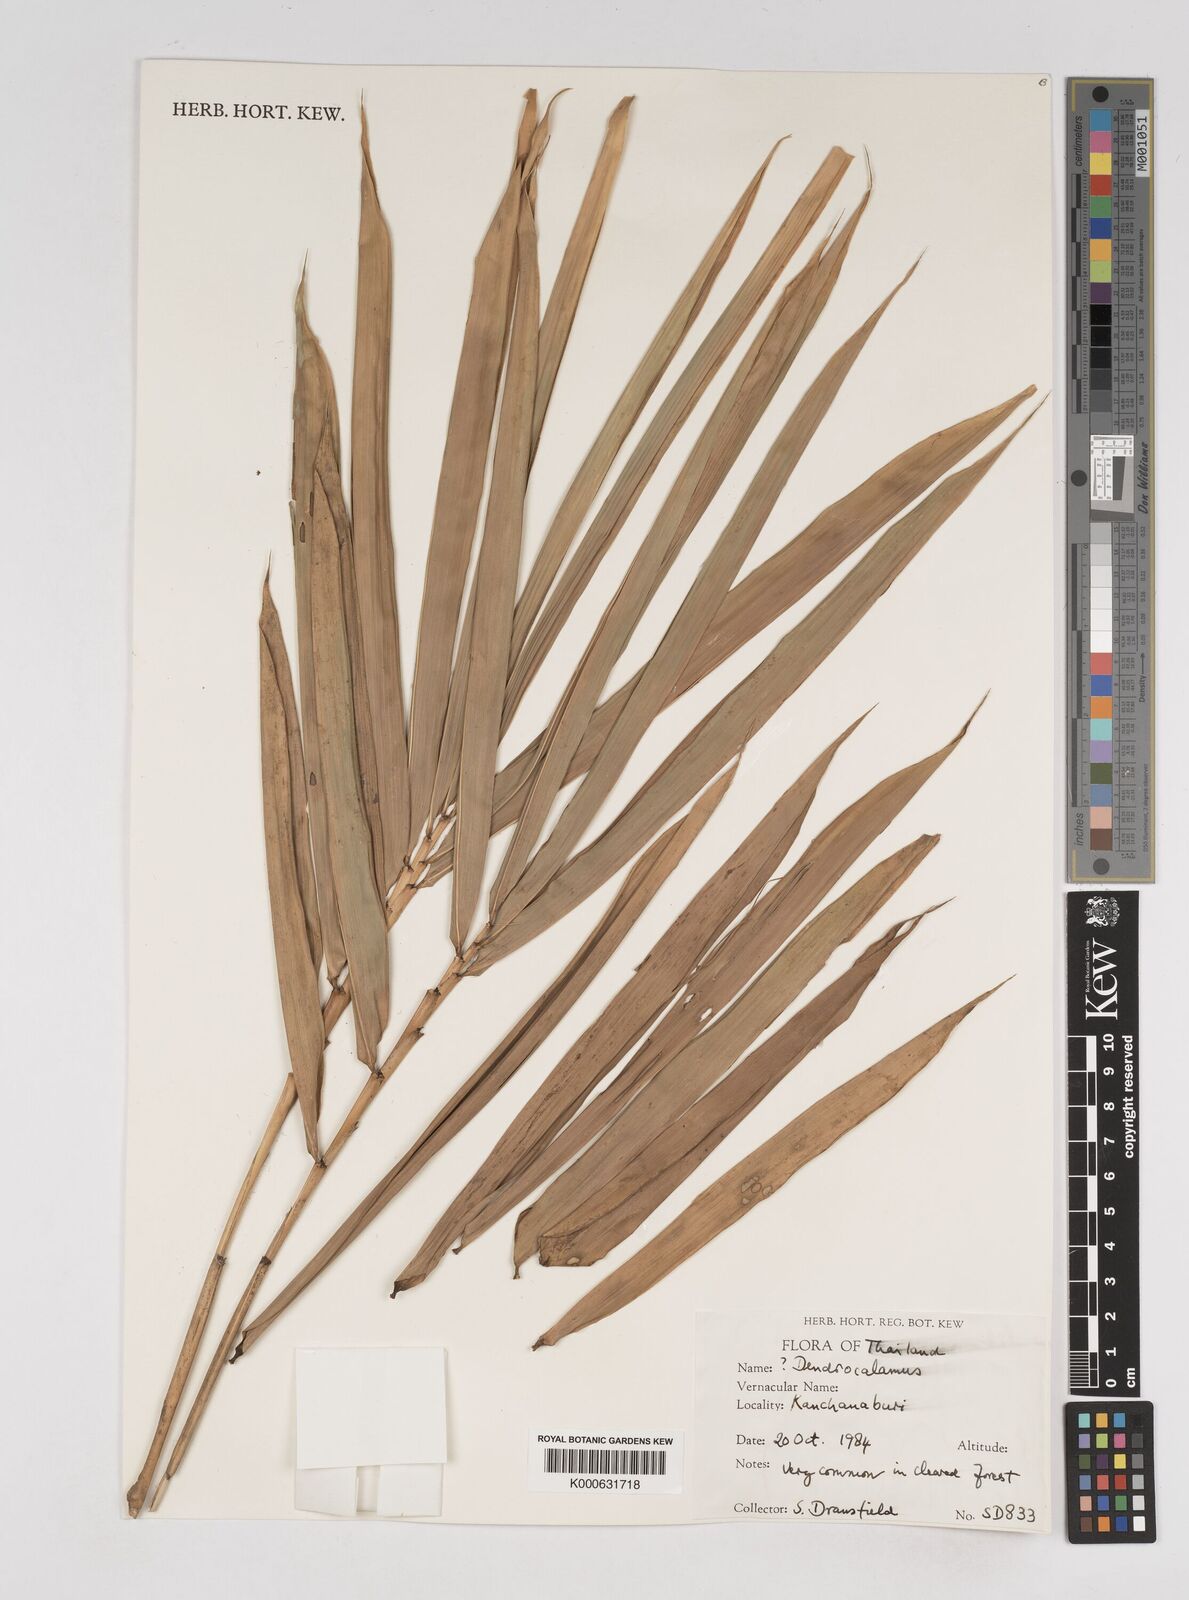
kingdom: Plantae
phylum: Tracheophyta
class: Liliopsida
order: Poales
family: Poaceae
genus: Gigantochloa
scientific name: Gigantochloa albociliata
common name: White-fringe gigantochloa
